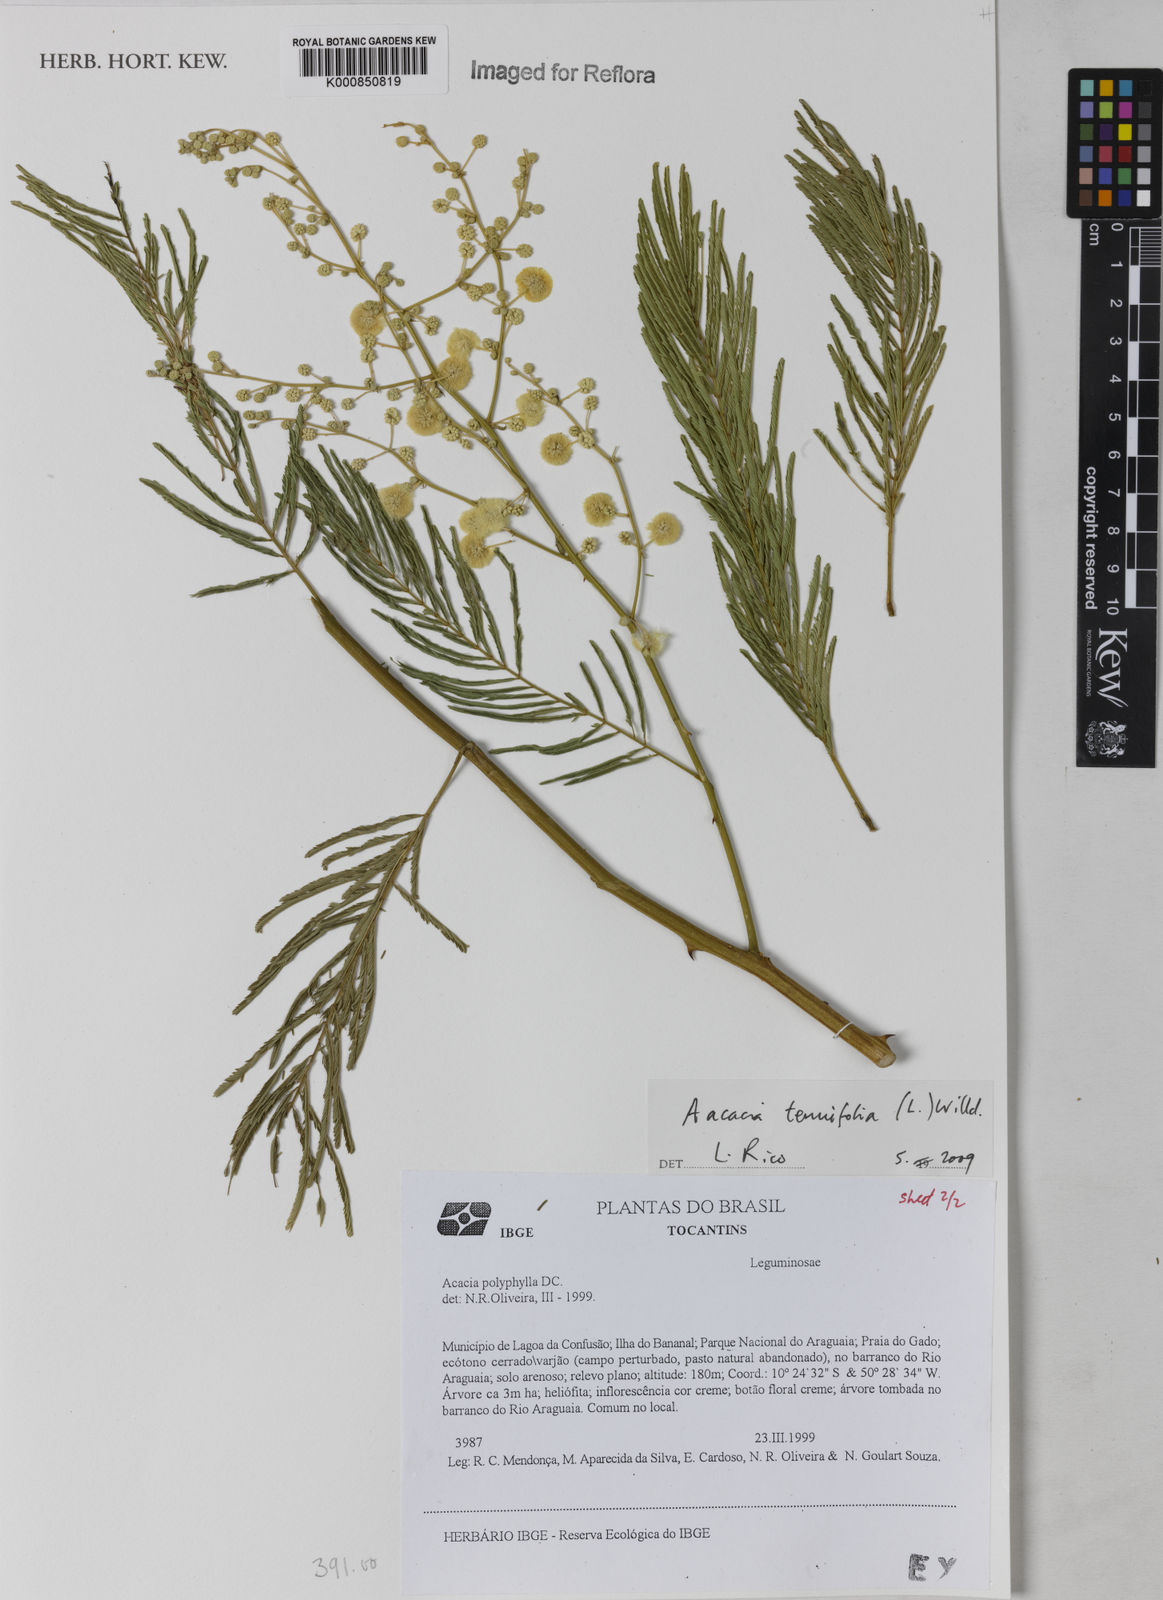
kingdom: Plantae
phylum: Tracheophyta
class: Magnoliopsida
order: Fabales
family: Fabaceae
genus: Senegalia
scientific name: Senegalia tenuifolia
